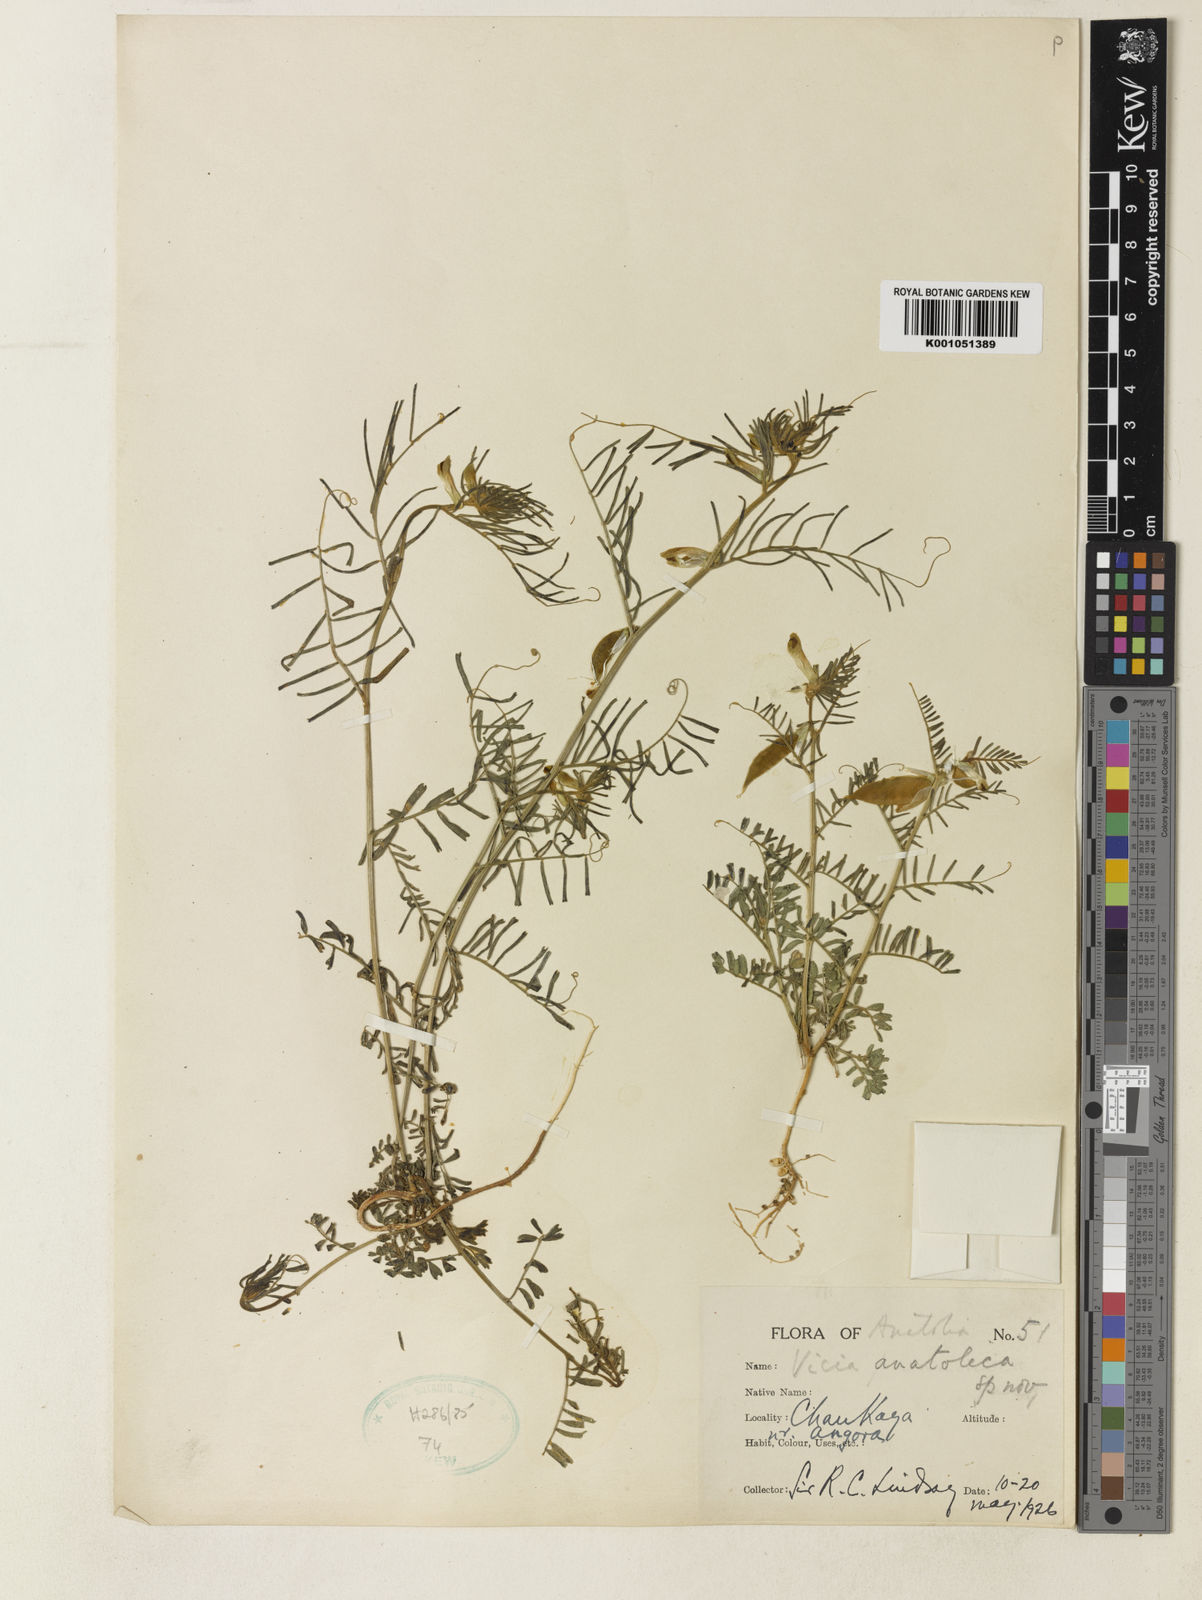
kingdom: Plantae
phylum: Tracheophyta
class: Magnoliopsida
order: Fabales
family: Fabaceae
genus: Vicia
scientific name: Vicia anatolica
